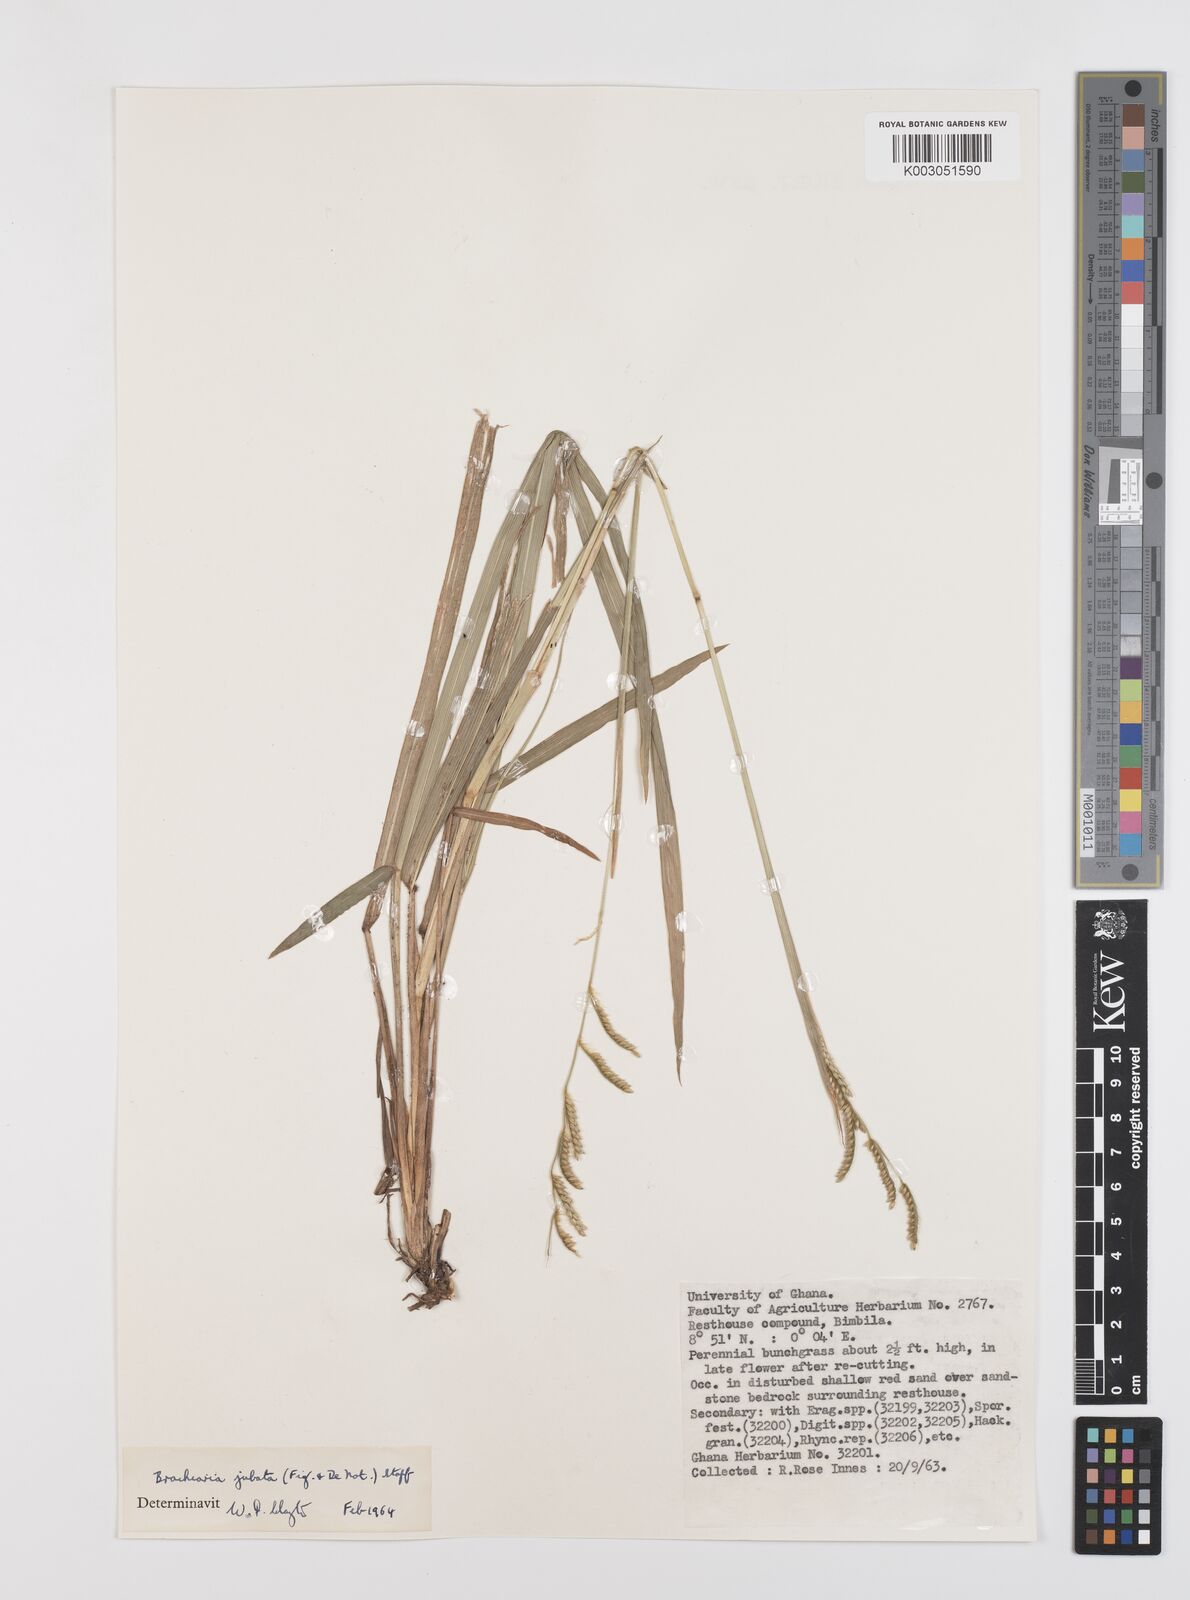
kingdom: Plantae
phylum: Tracheophyta
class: Liliopsida
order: Poales
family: Poaceae
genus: Urochloa
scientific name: Urochloa jubata
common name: Buffalograss
